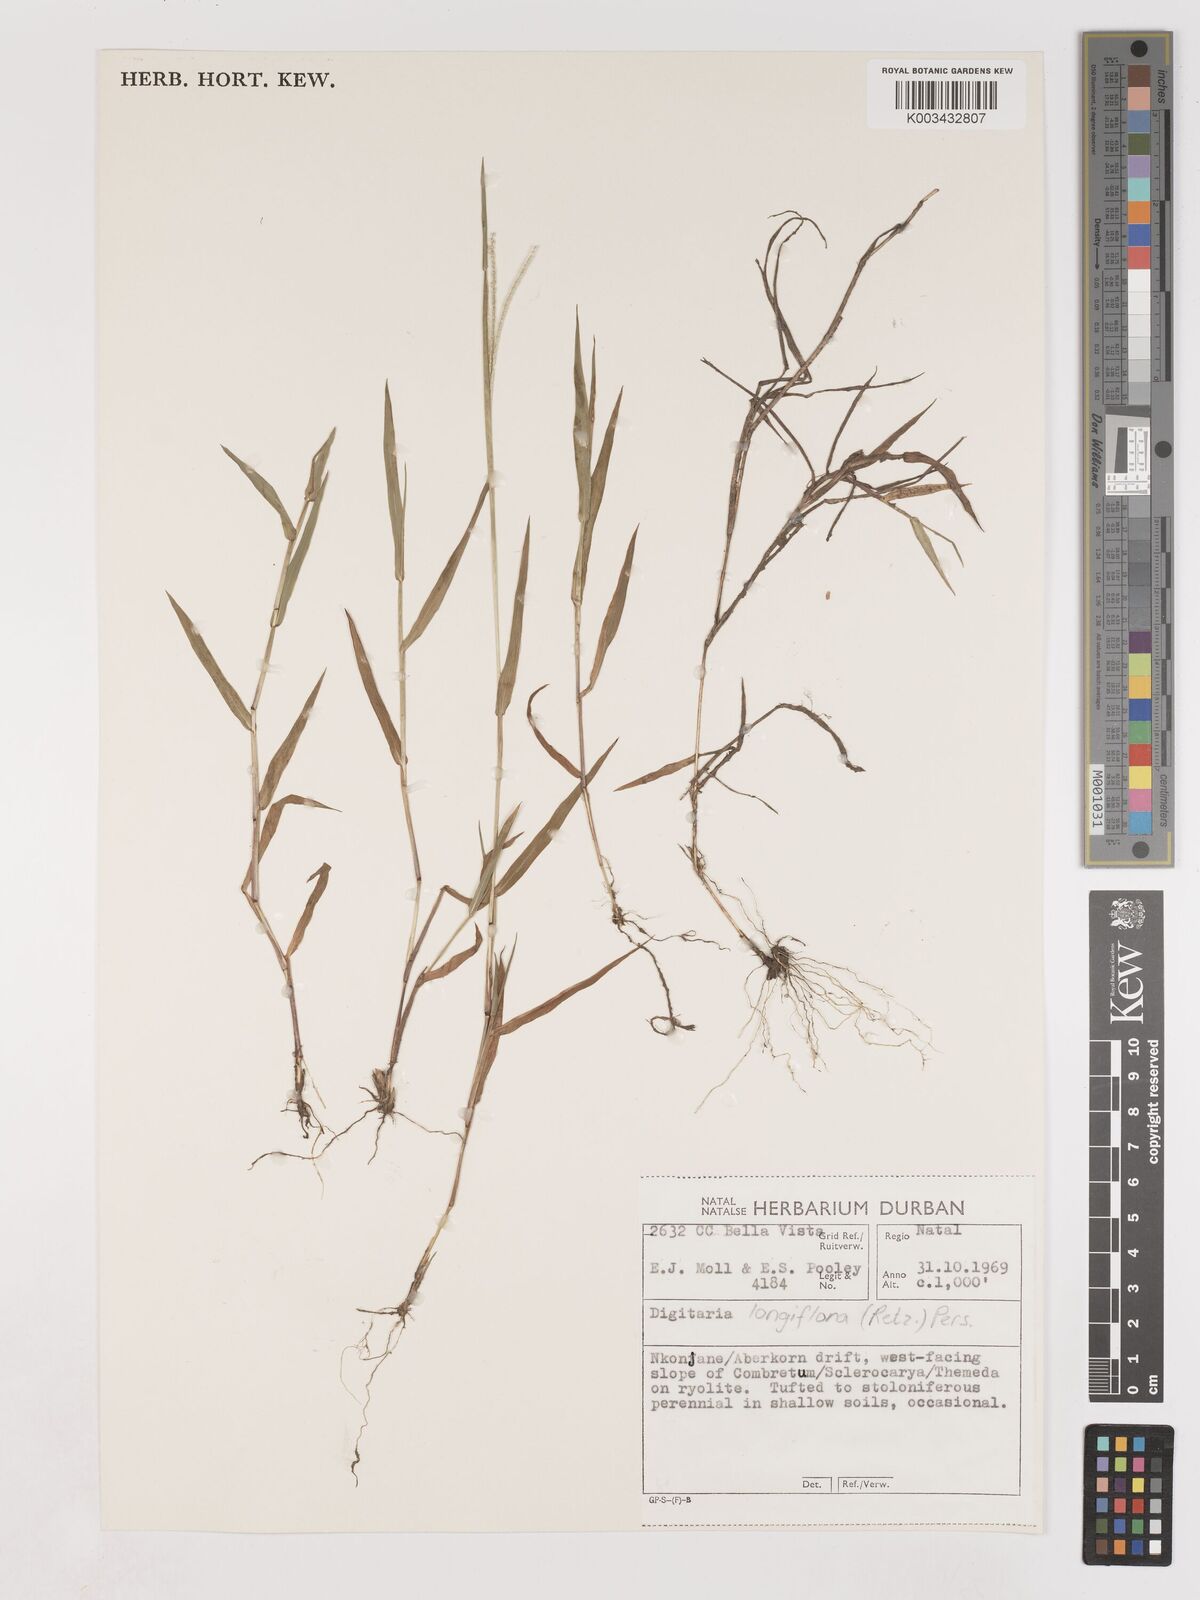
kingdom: Plantae
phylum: Tracheophyta
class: Liliopsida
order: Poales
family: Poaceae
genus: Digitaria
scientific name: Digitaria longiflora
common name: Wire crabgrass
